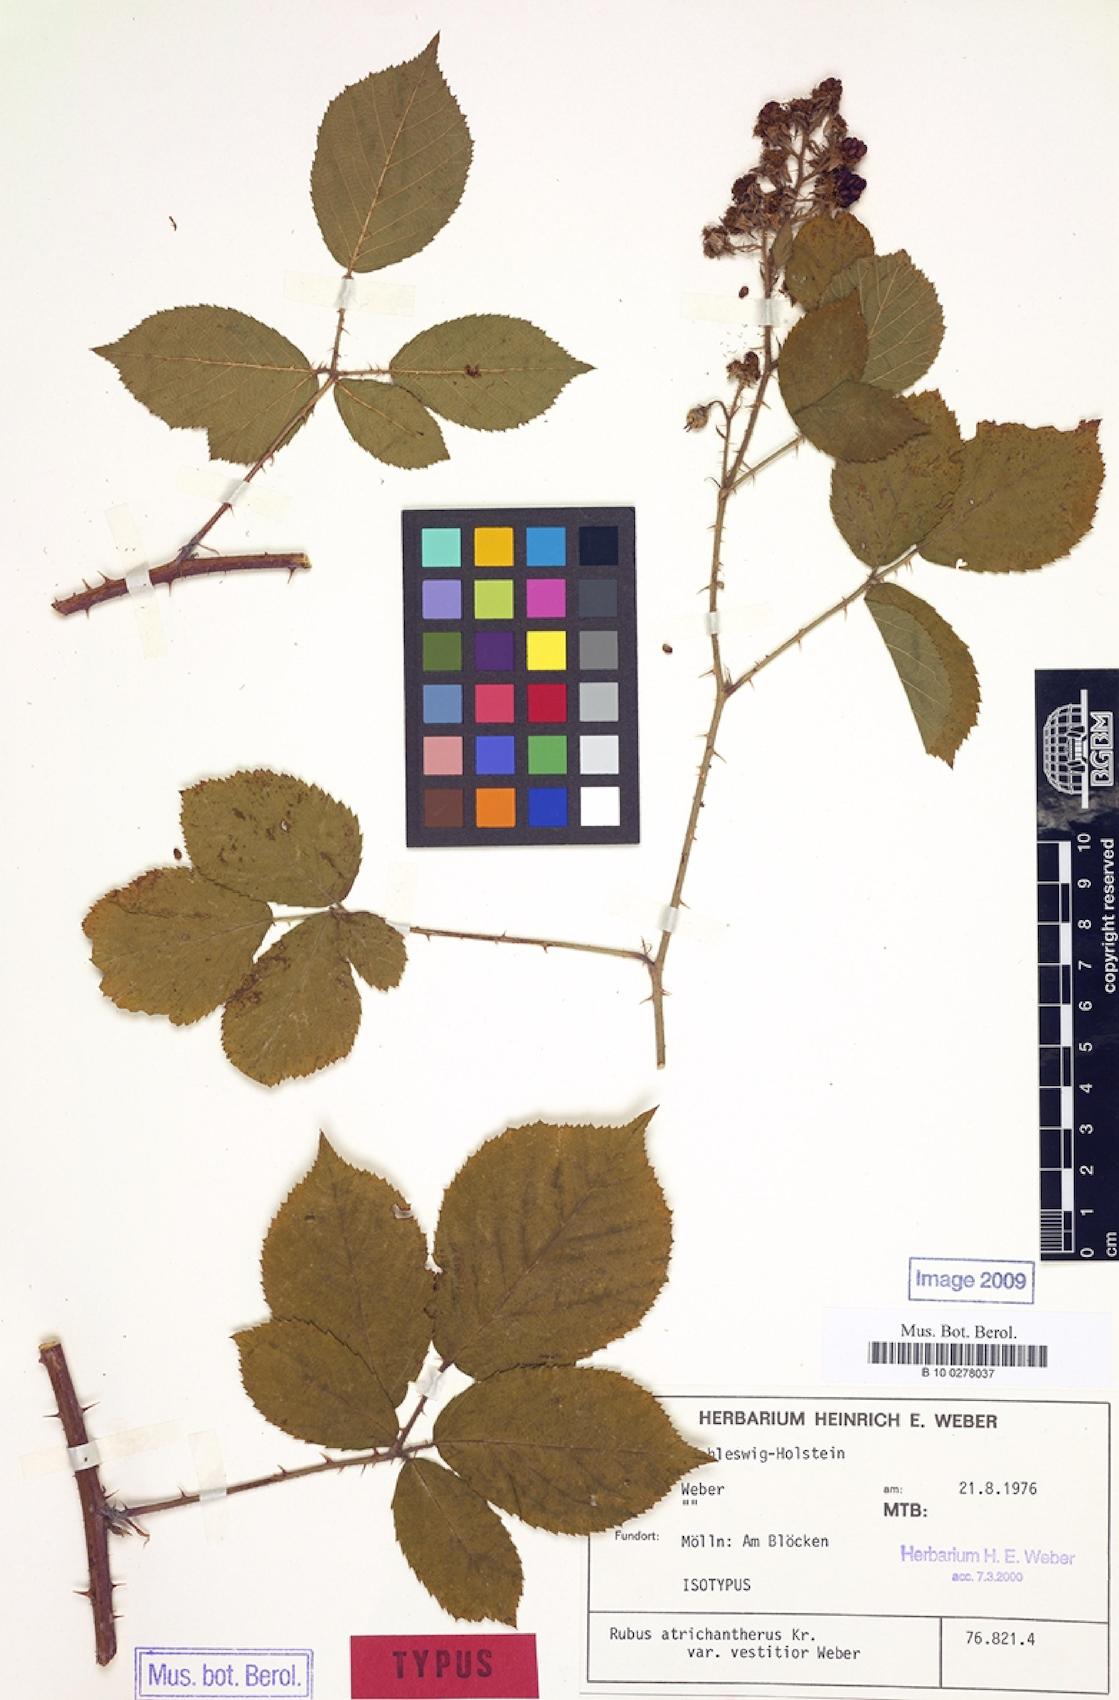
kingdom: Plantae
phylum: Tracheophyta
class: Magnoliopsida
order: Rosales
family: Rosaceae
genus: Rubus
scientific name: Rubus atrichantherus
